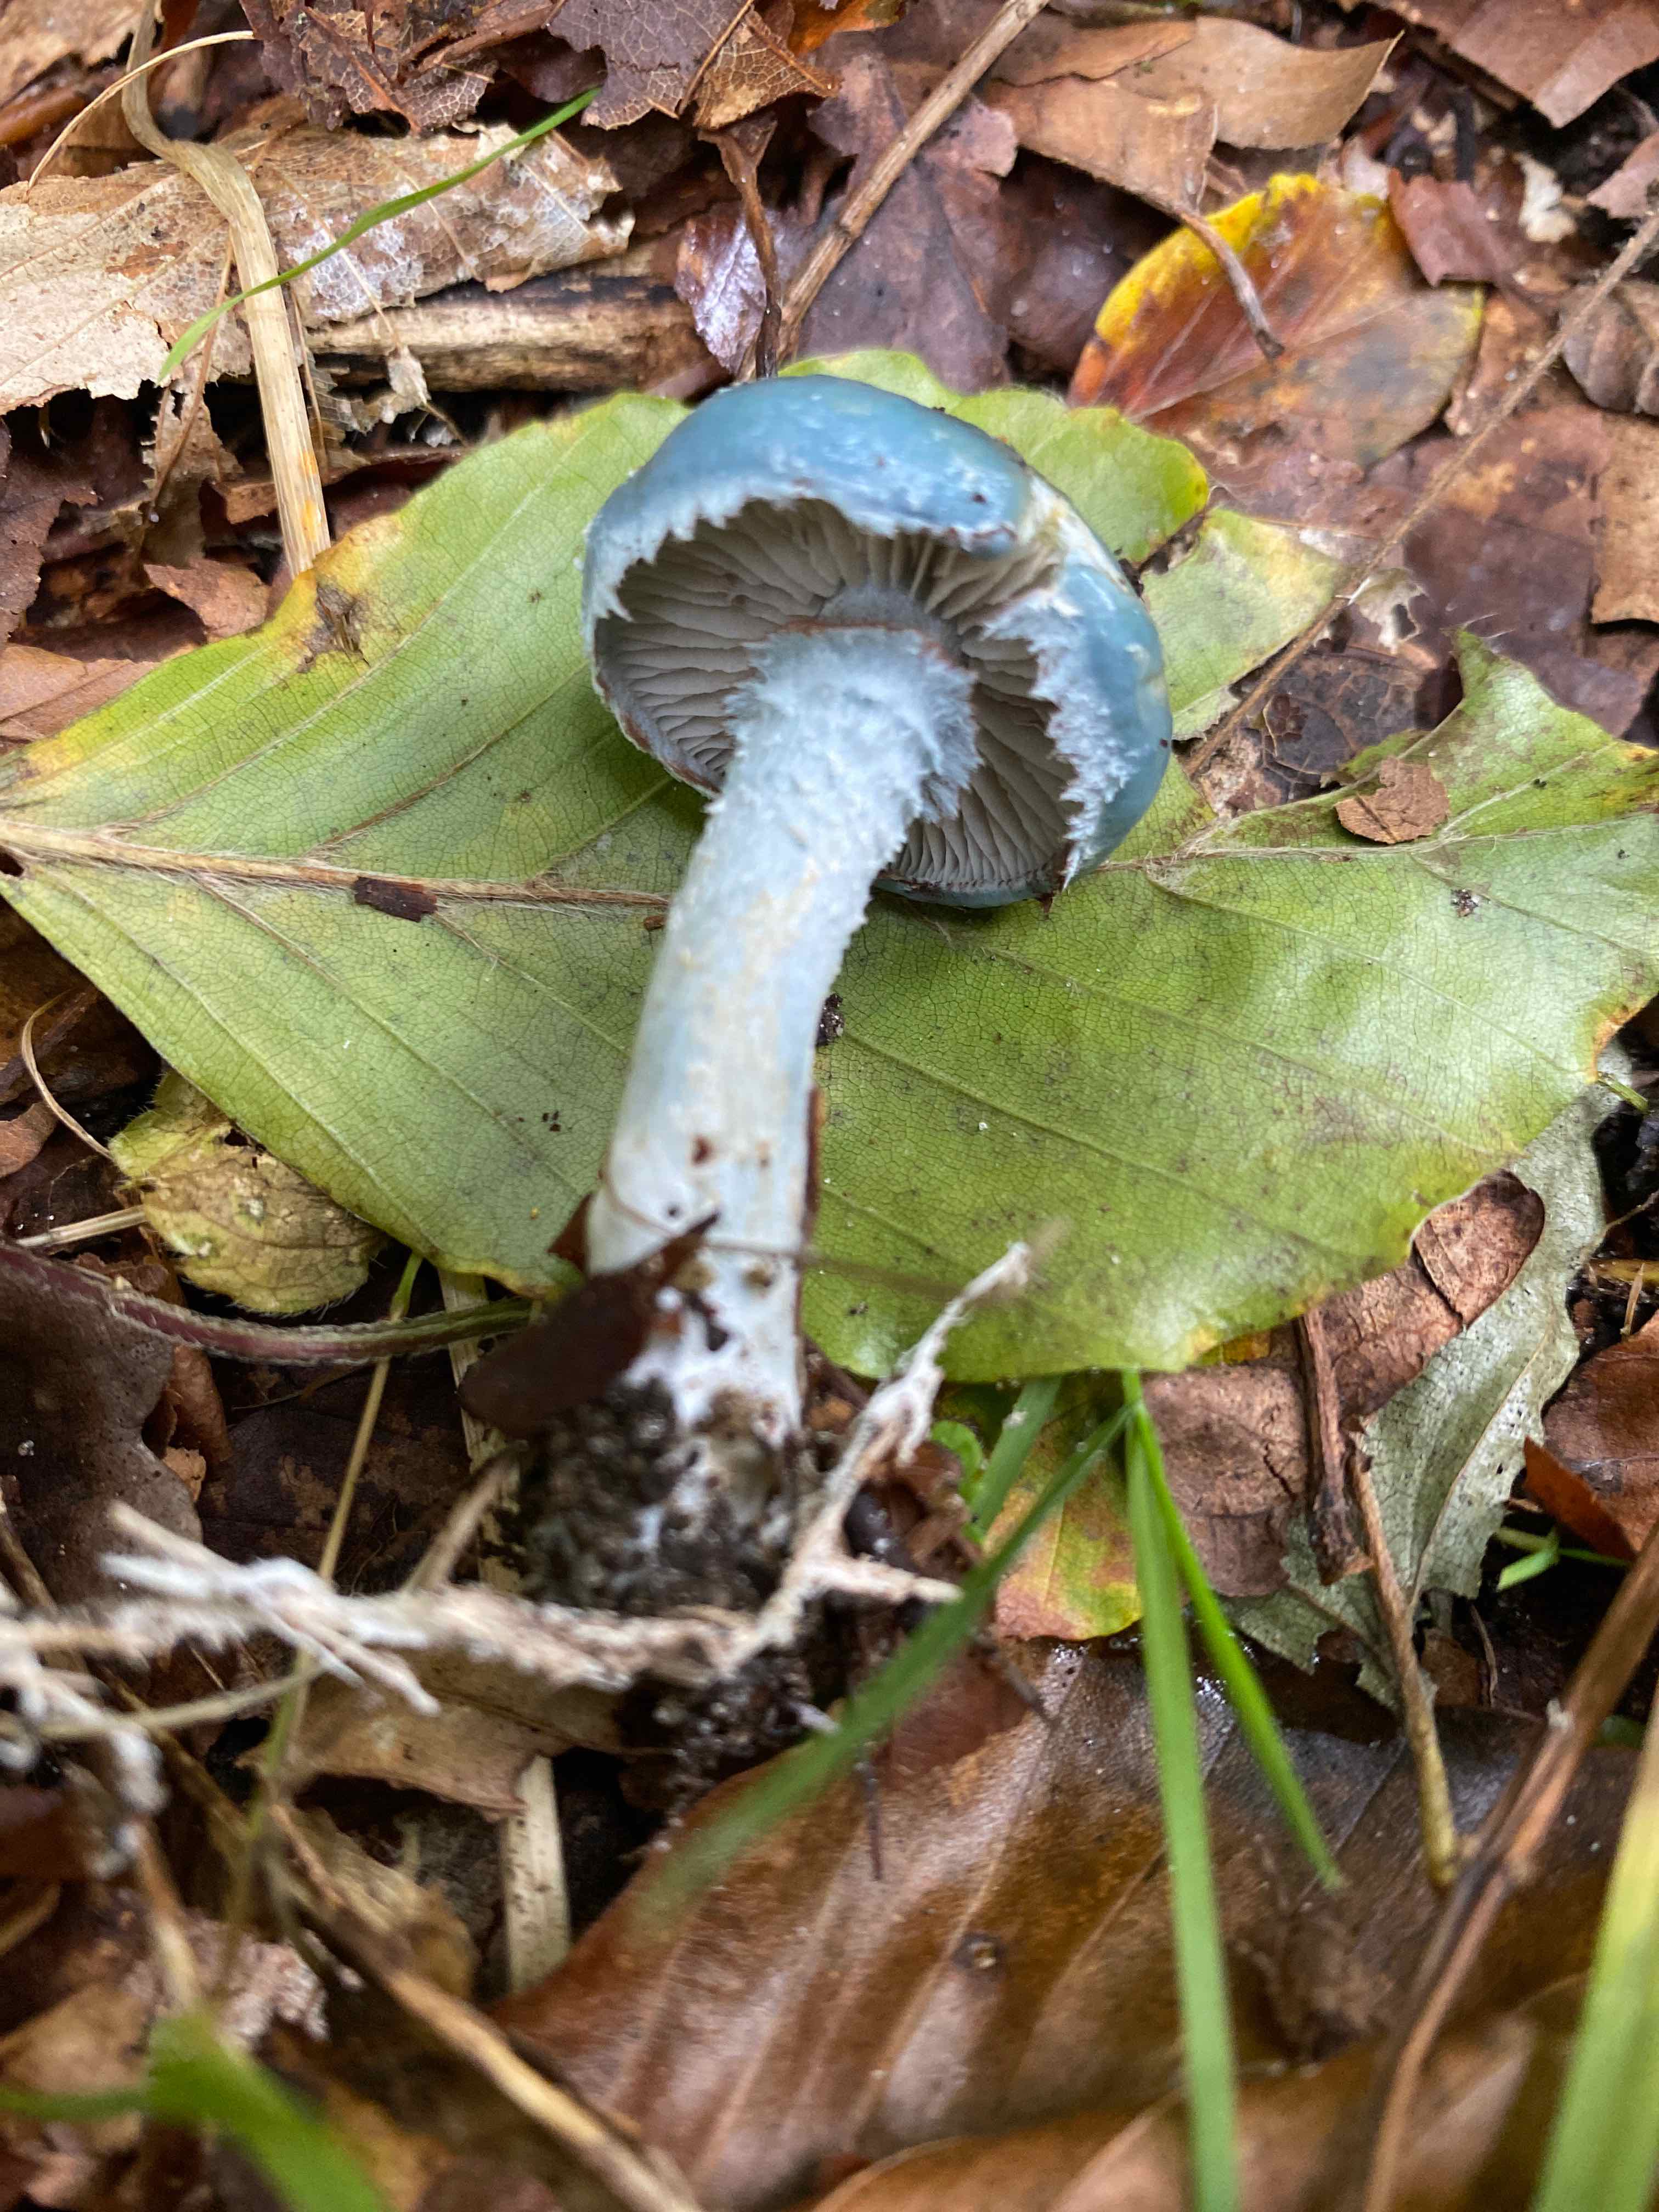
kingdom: Fungi
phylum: Basidiomycota
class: Agaricomycetes
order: Agaricales
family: Strophariaceae
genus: Stropharia
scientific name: Stropharia cyanea
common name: blågrøn bredblad
